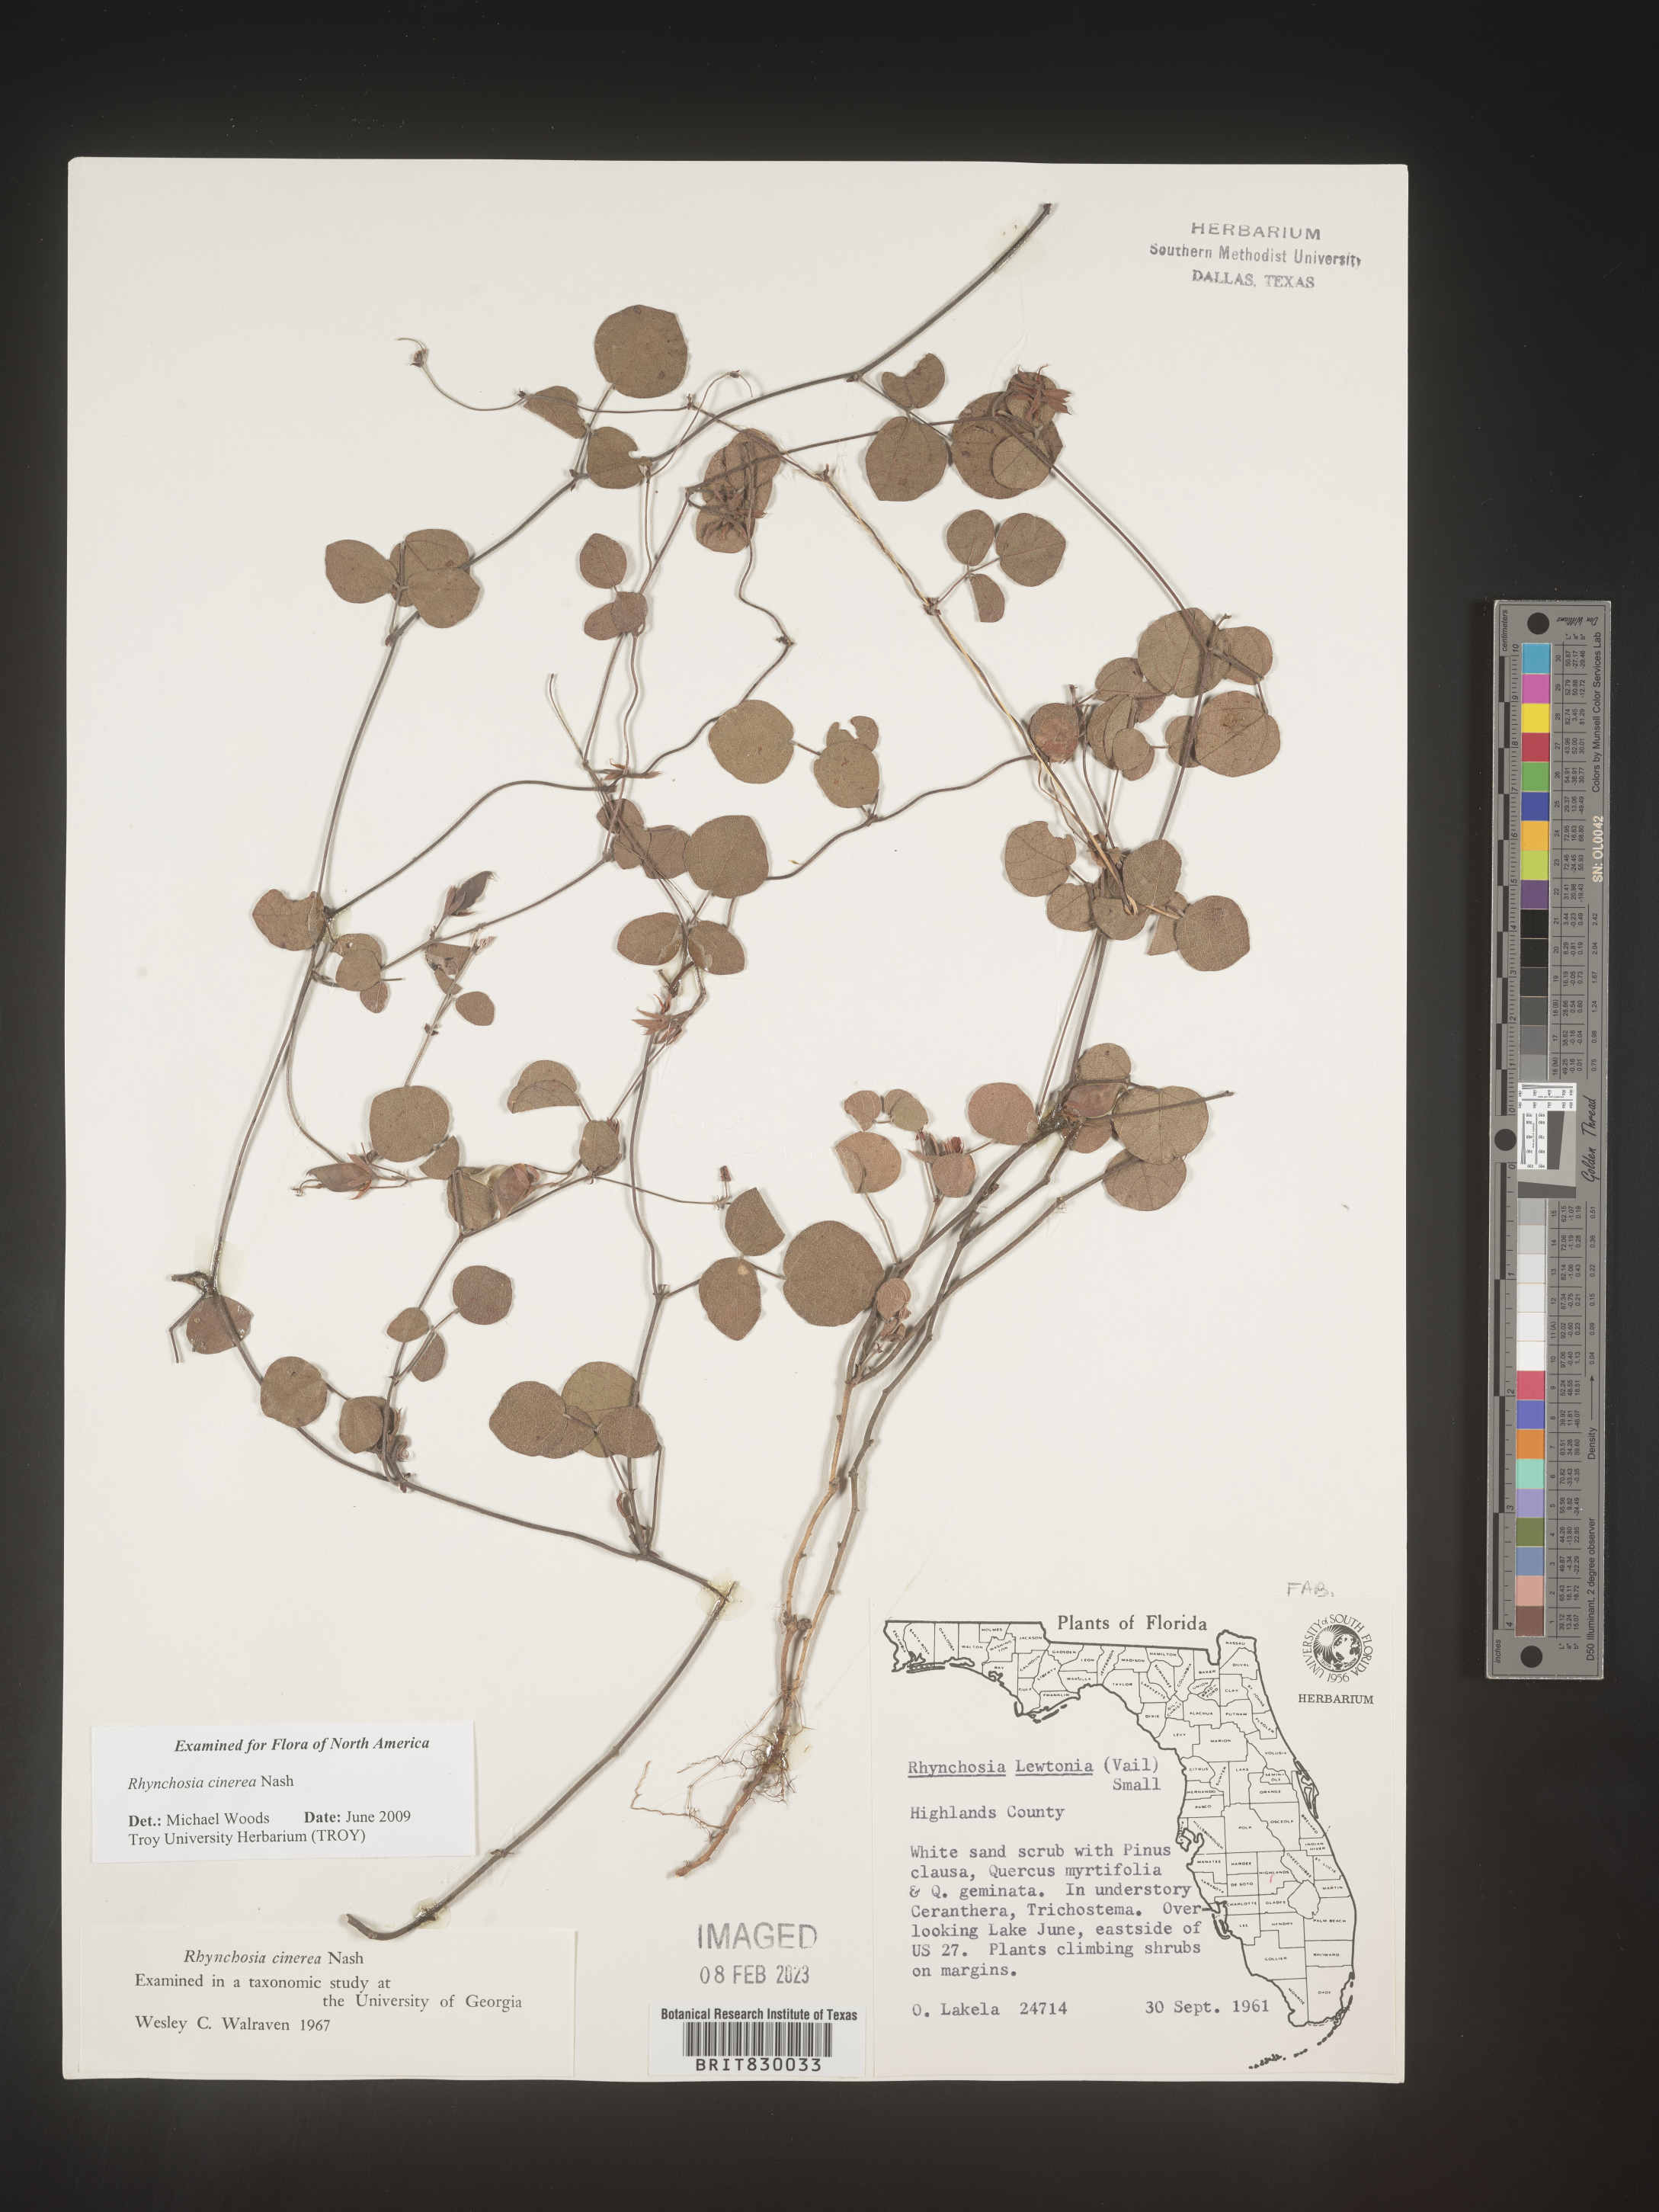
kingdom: Plantae
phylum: Tracheophyta
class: Magnoliopsida
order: Fabales
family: Fabaceae
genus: Rhynchosia
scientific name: Rhynchosia
